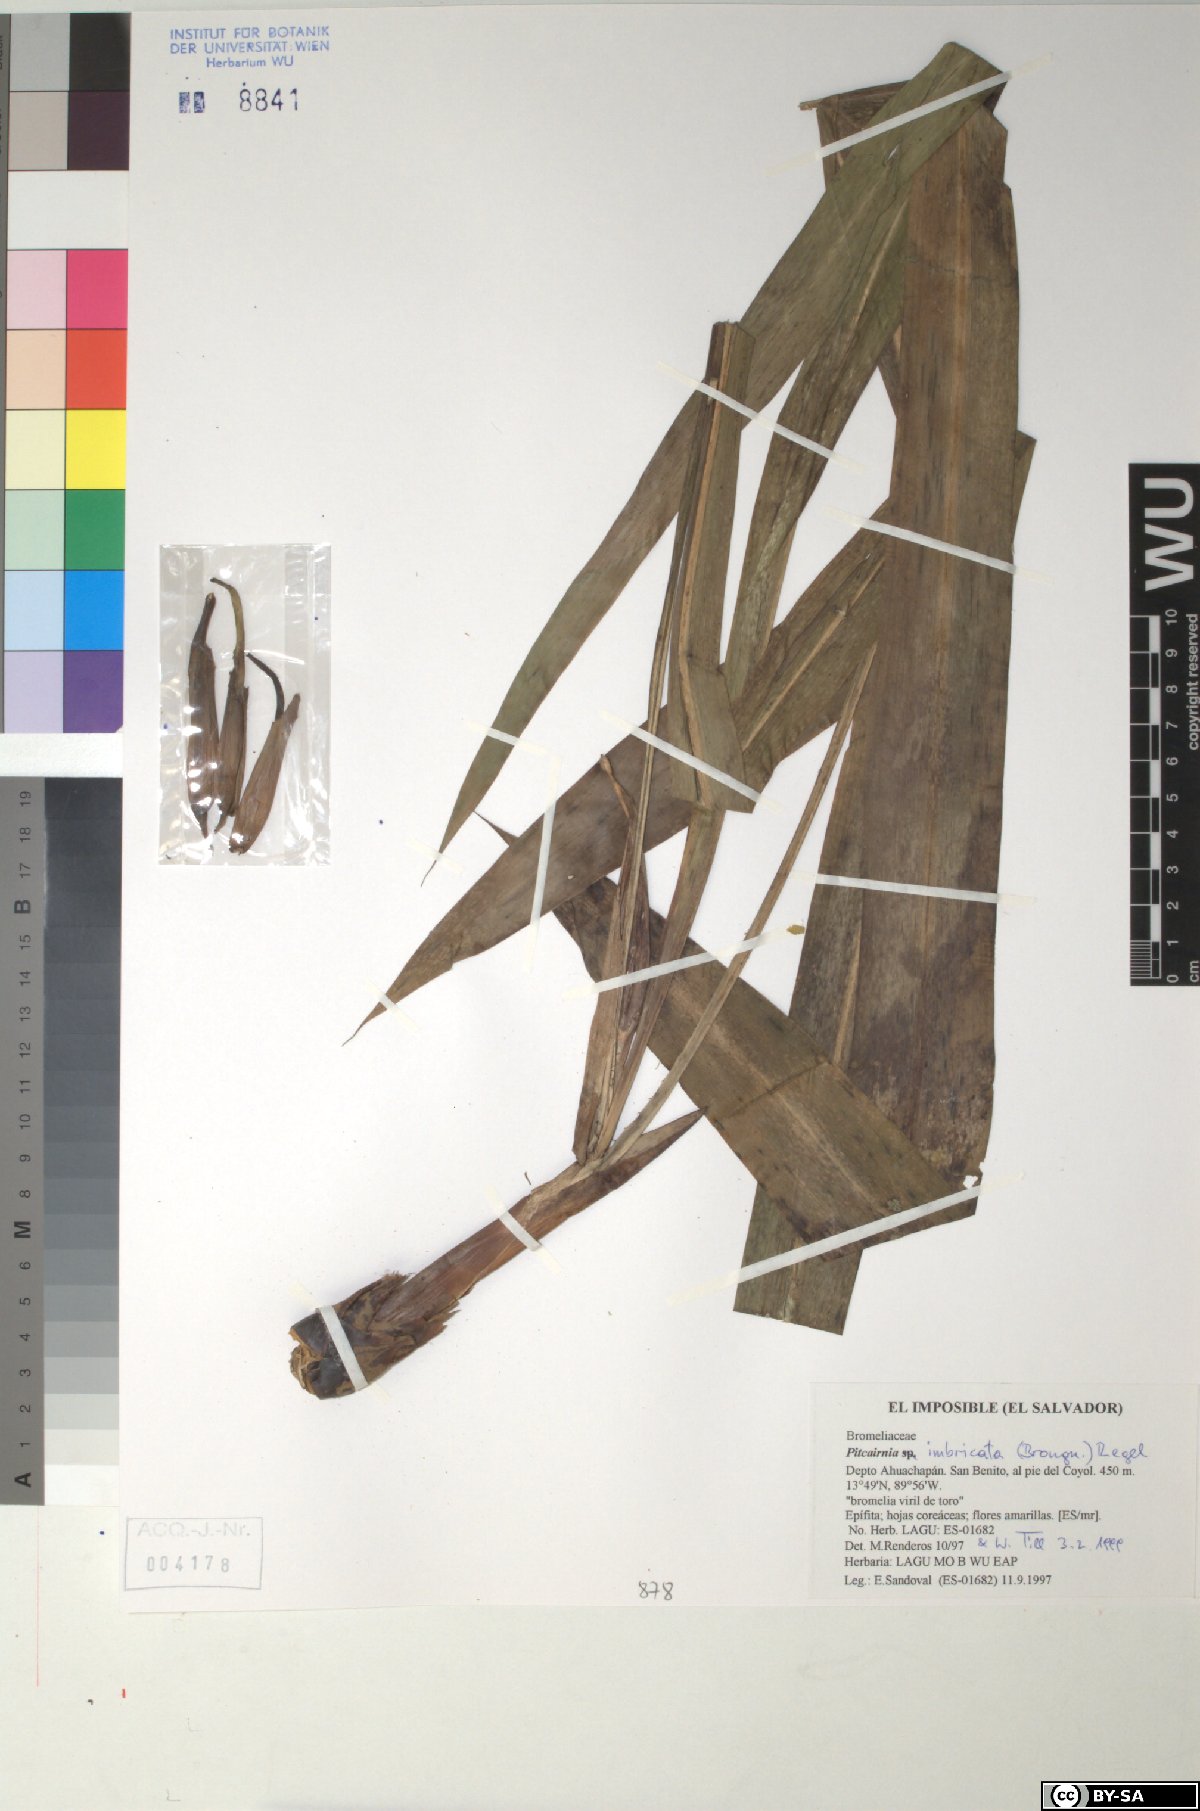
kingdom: Plantae
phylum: Tracheophyta
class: Liliopsida
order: Poales
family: Bromeliaceae
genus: Pitcairnia
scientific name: Pitcairnia imbricata
